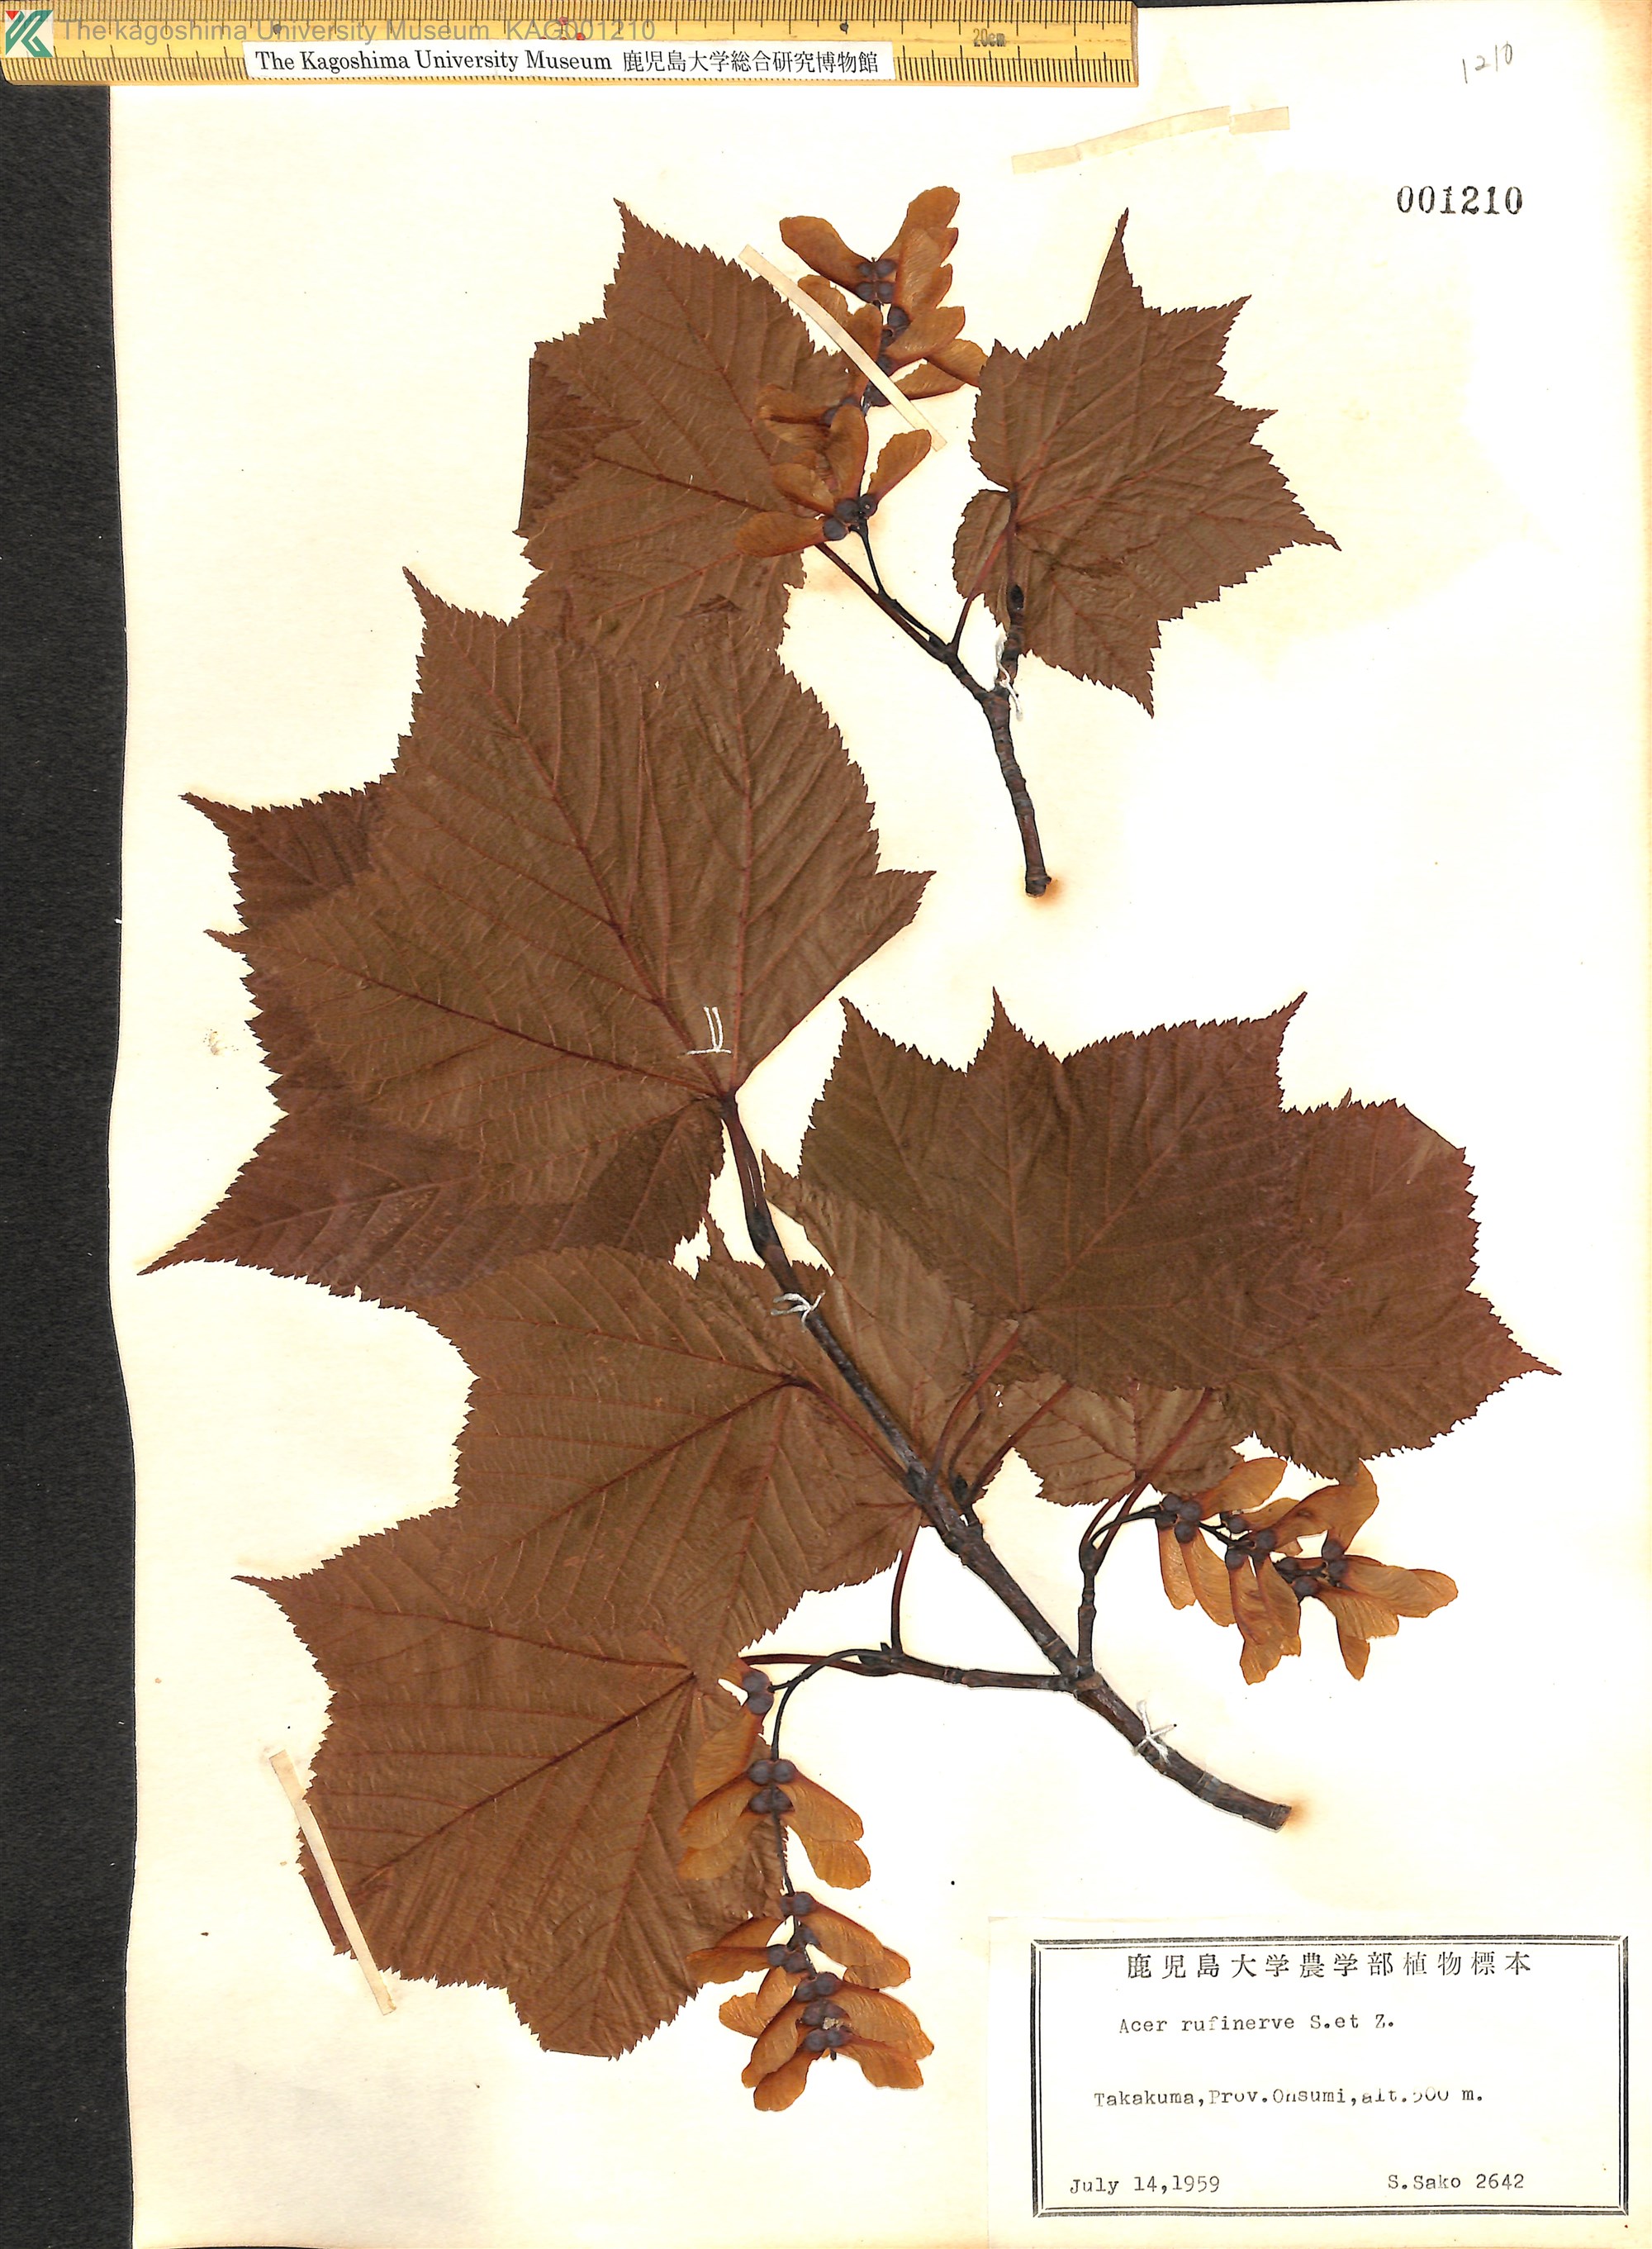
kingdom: Plantae
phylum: Tracheophyta
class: Magnoliopsida
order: Sapindales
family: Sapindaceae
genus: Acer
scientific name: Acer rufinerve
